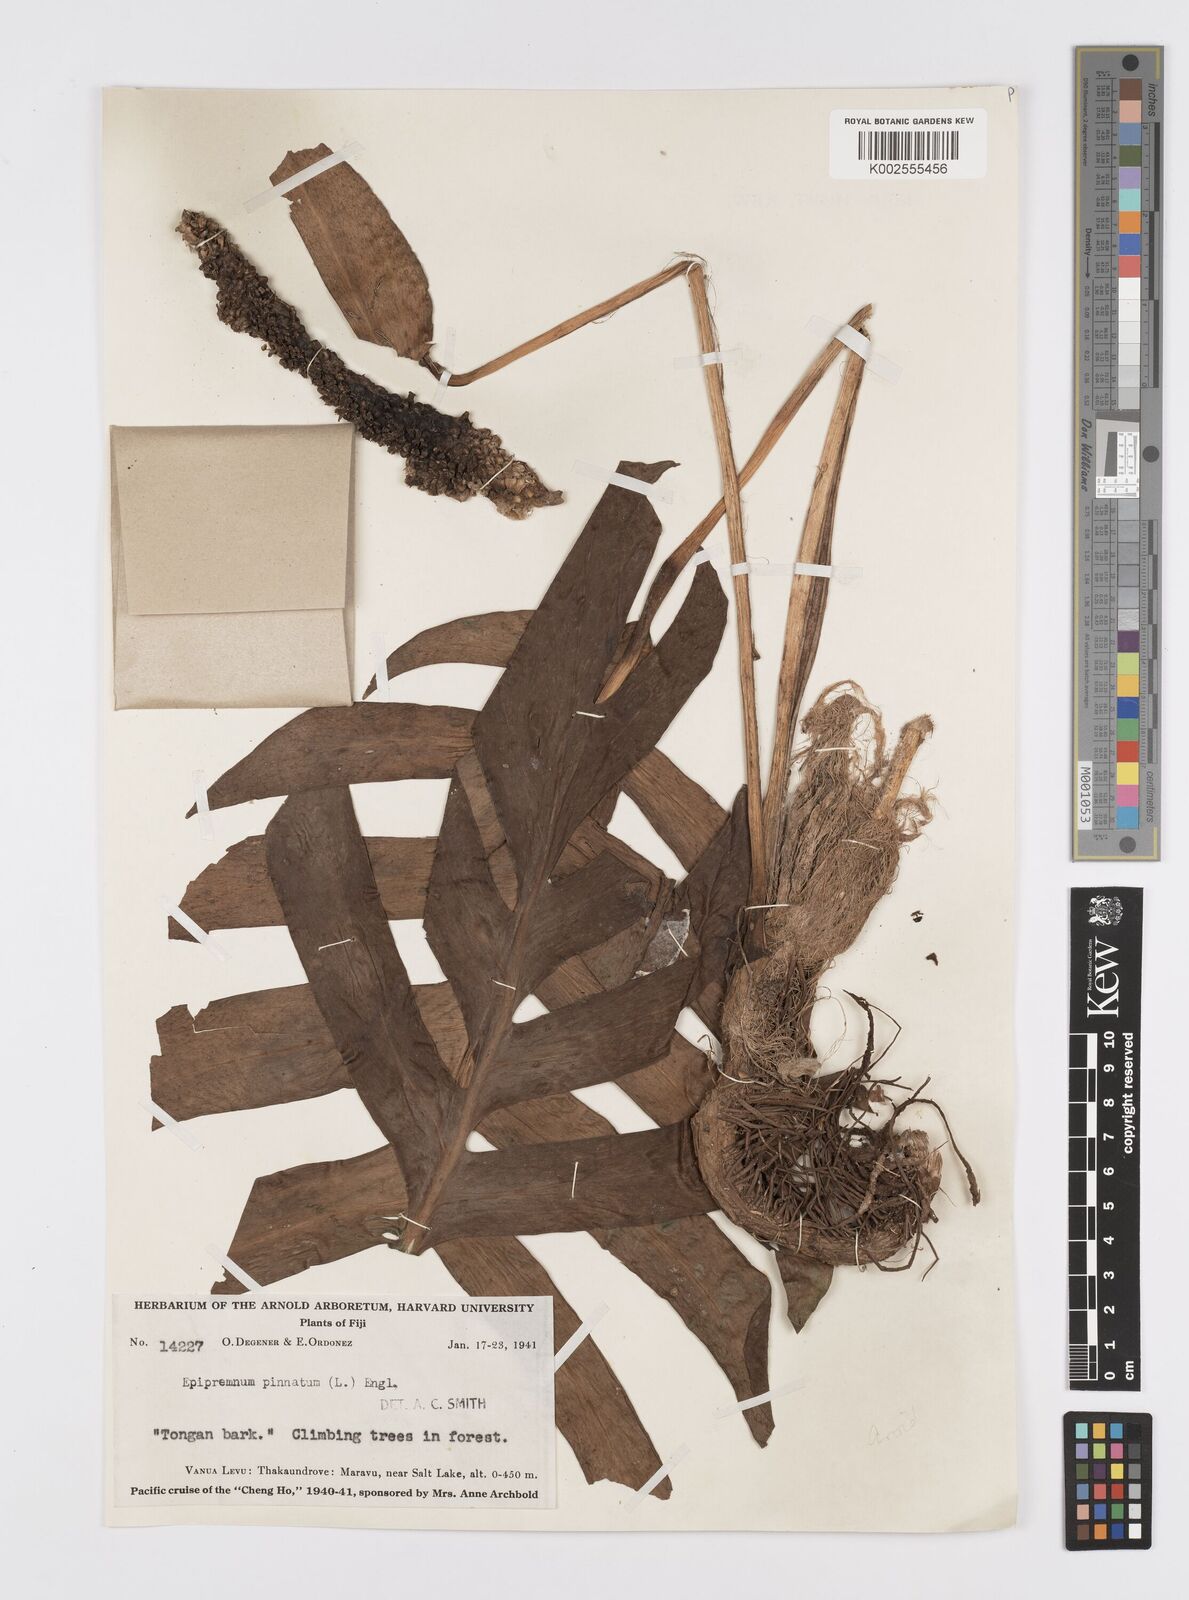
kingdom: Plantae
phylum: Tracheophyta
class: Liliopsida
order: Alismatales
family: Araceae
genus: Epipremnum
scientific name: Epipremnum pinnatum
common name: Centipede tongavine
